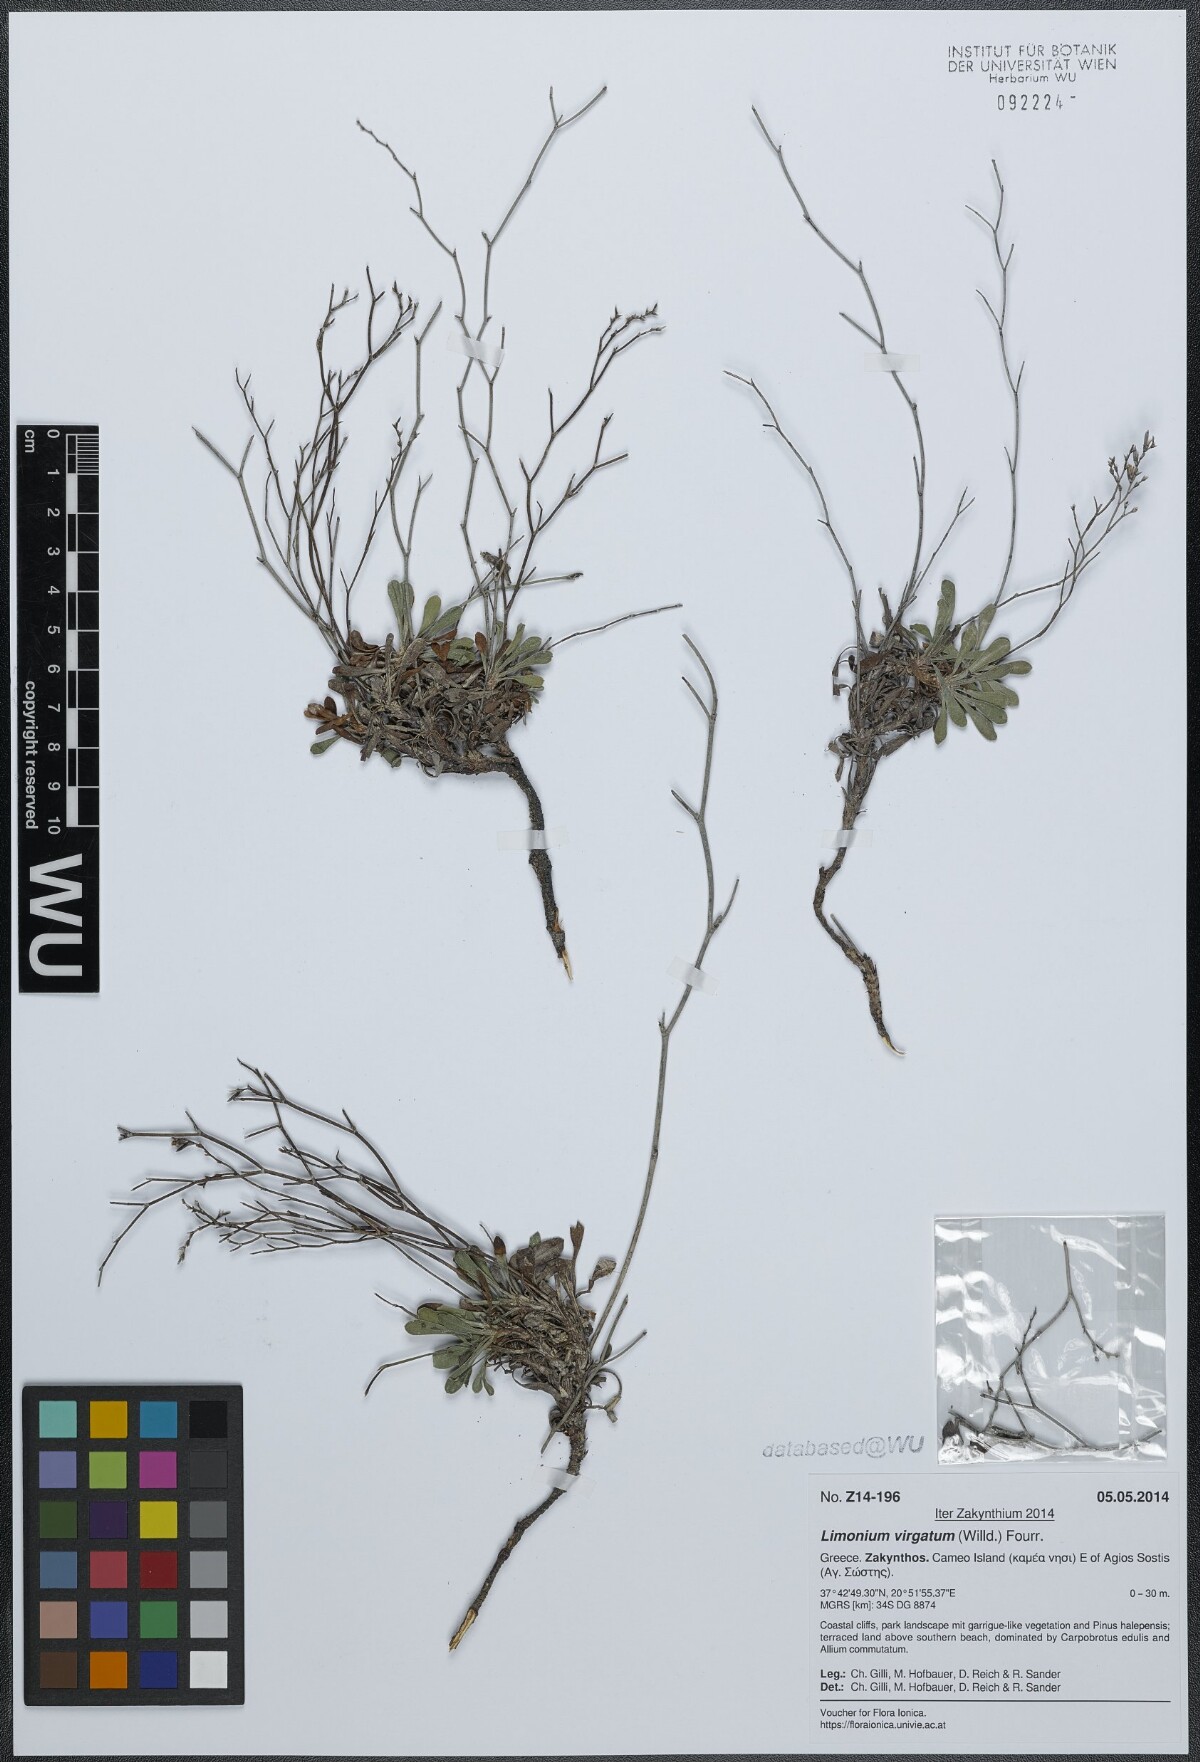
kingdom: Plantae
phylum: Tracheophyta
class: Magnoliopsida
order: Caryophyllales
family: Plumbaginaceae
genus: Limonium
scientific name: Limonium virgatum
